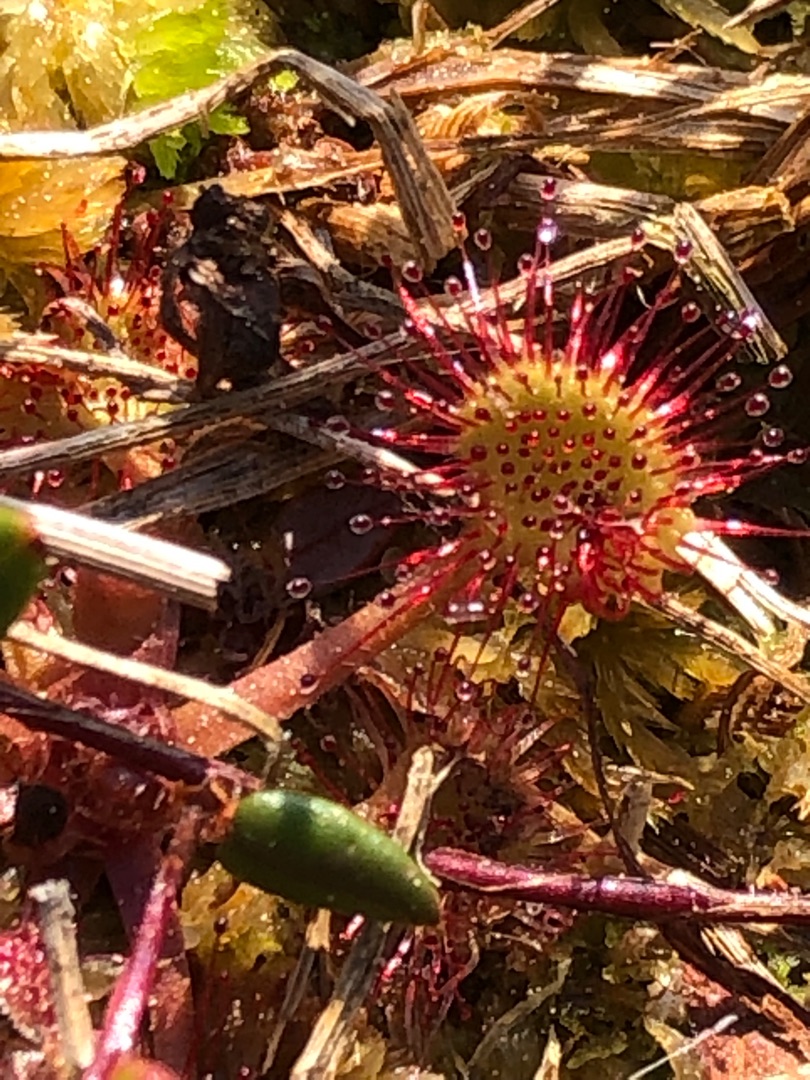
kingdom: Plantae
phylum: Tracheophyta
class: Magnoliopsida
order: Caryophyllales
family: Droseraceae
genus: Drosera
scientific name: Drosera rotundifolia
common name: Rundbladet soldug
